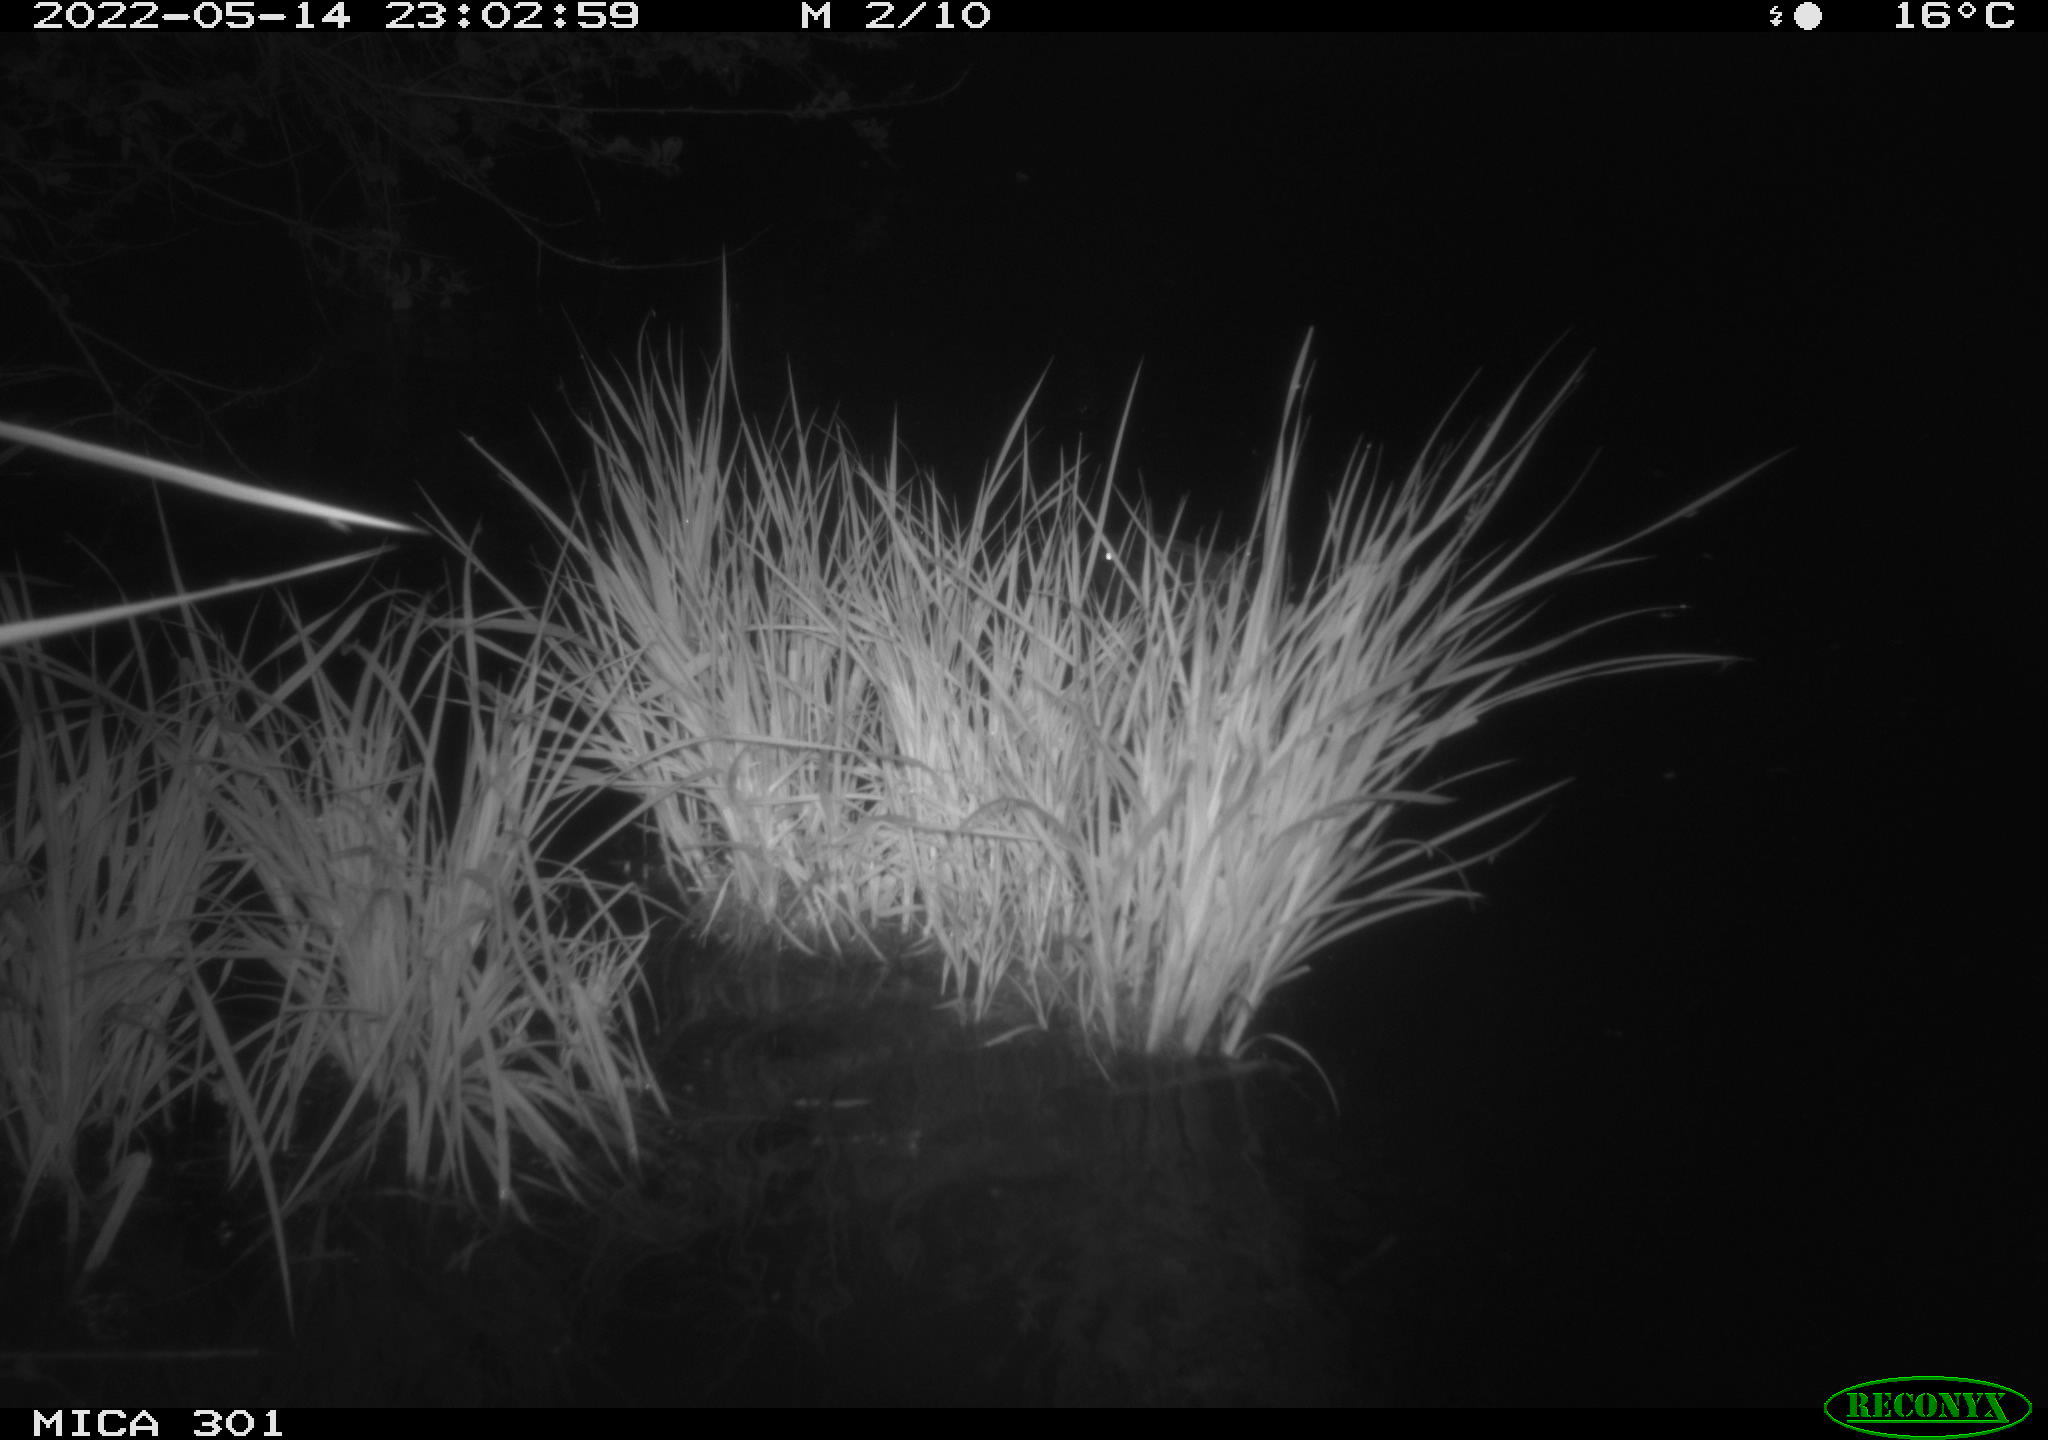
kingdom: Animalia
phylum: Chordata
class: Mammalia
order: Rodentia
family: Castoridae
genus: Castor
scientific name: Castor fiber
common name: Eurasian beaver
